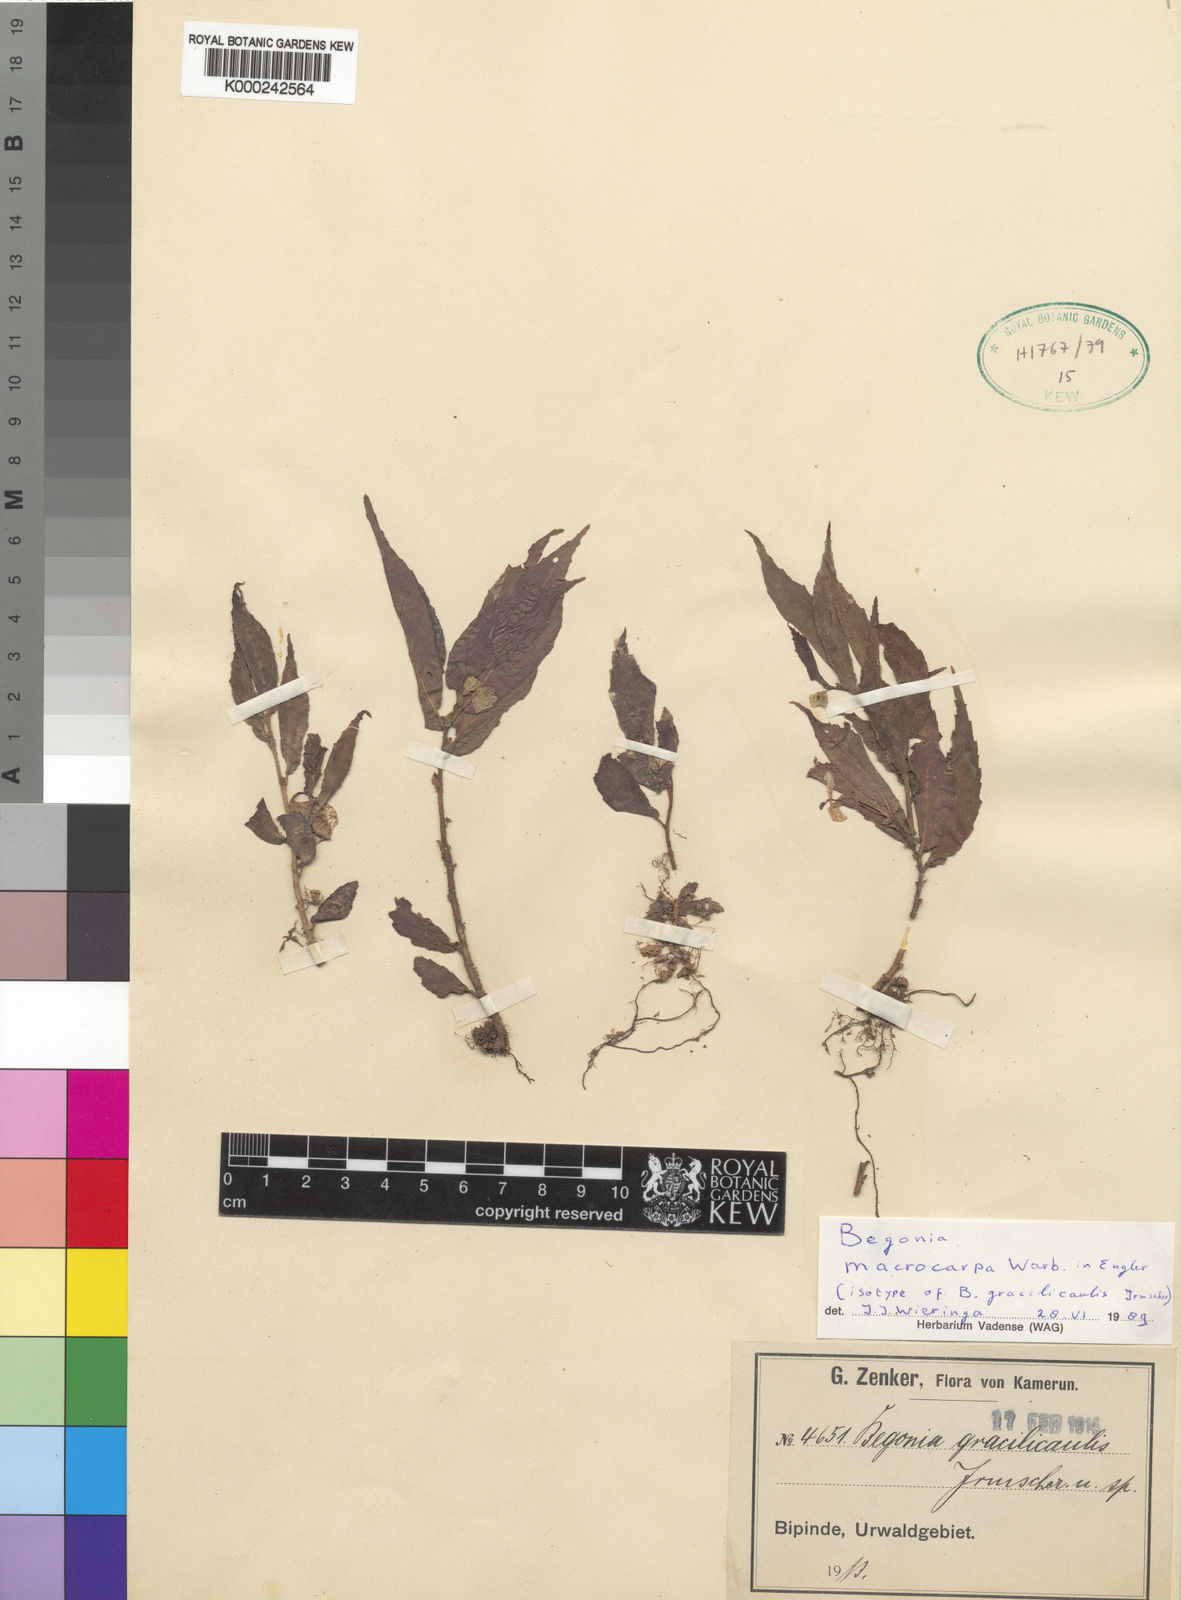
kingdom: Plantae
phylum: Tracheophyta
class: Magnoliopsida
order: Cucurbitales
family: Begoniaceae
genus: Begonia
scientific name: Begonia macrocarpa
